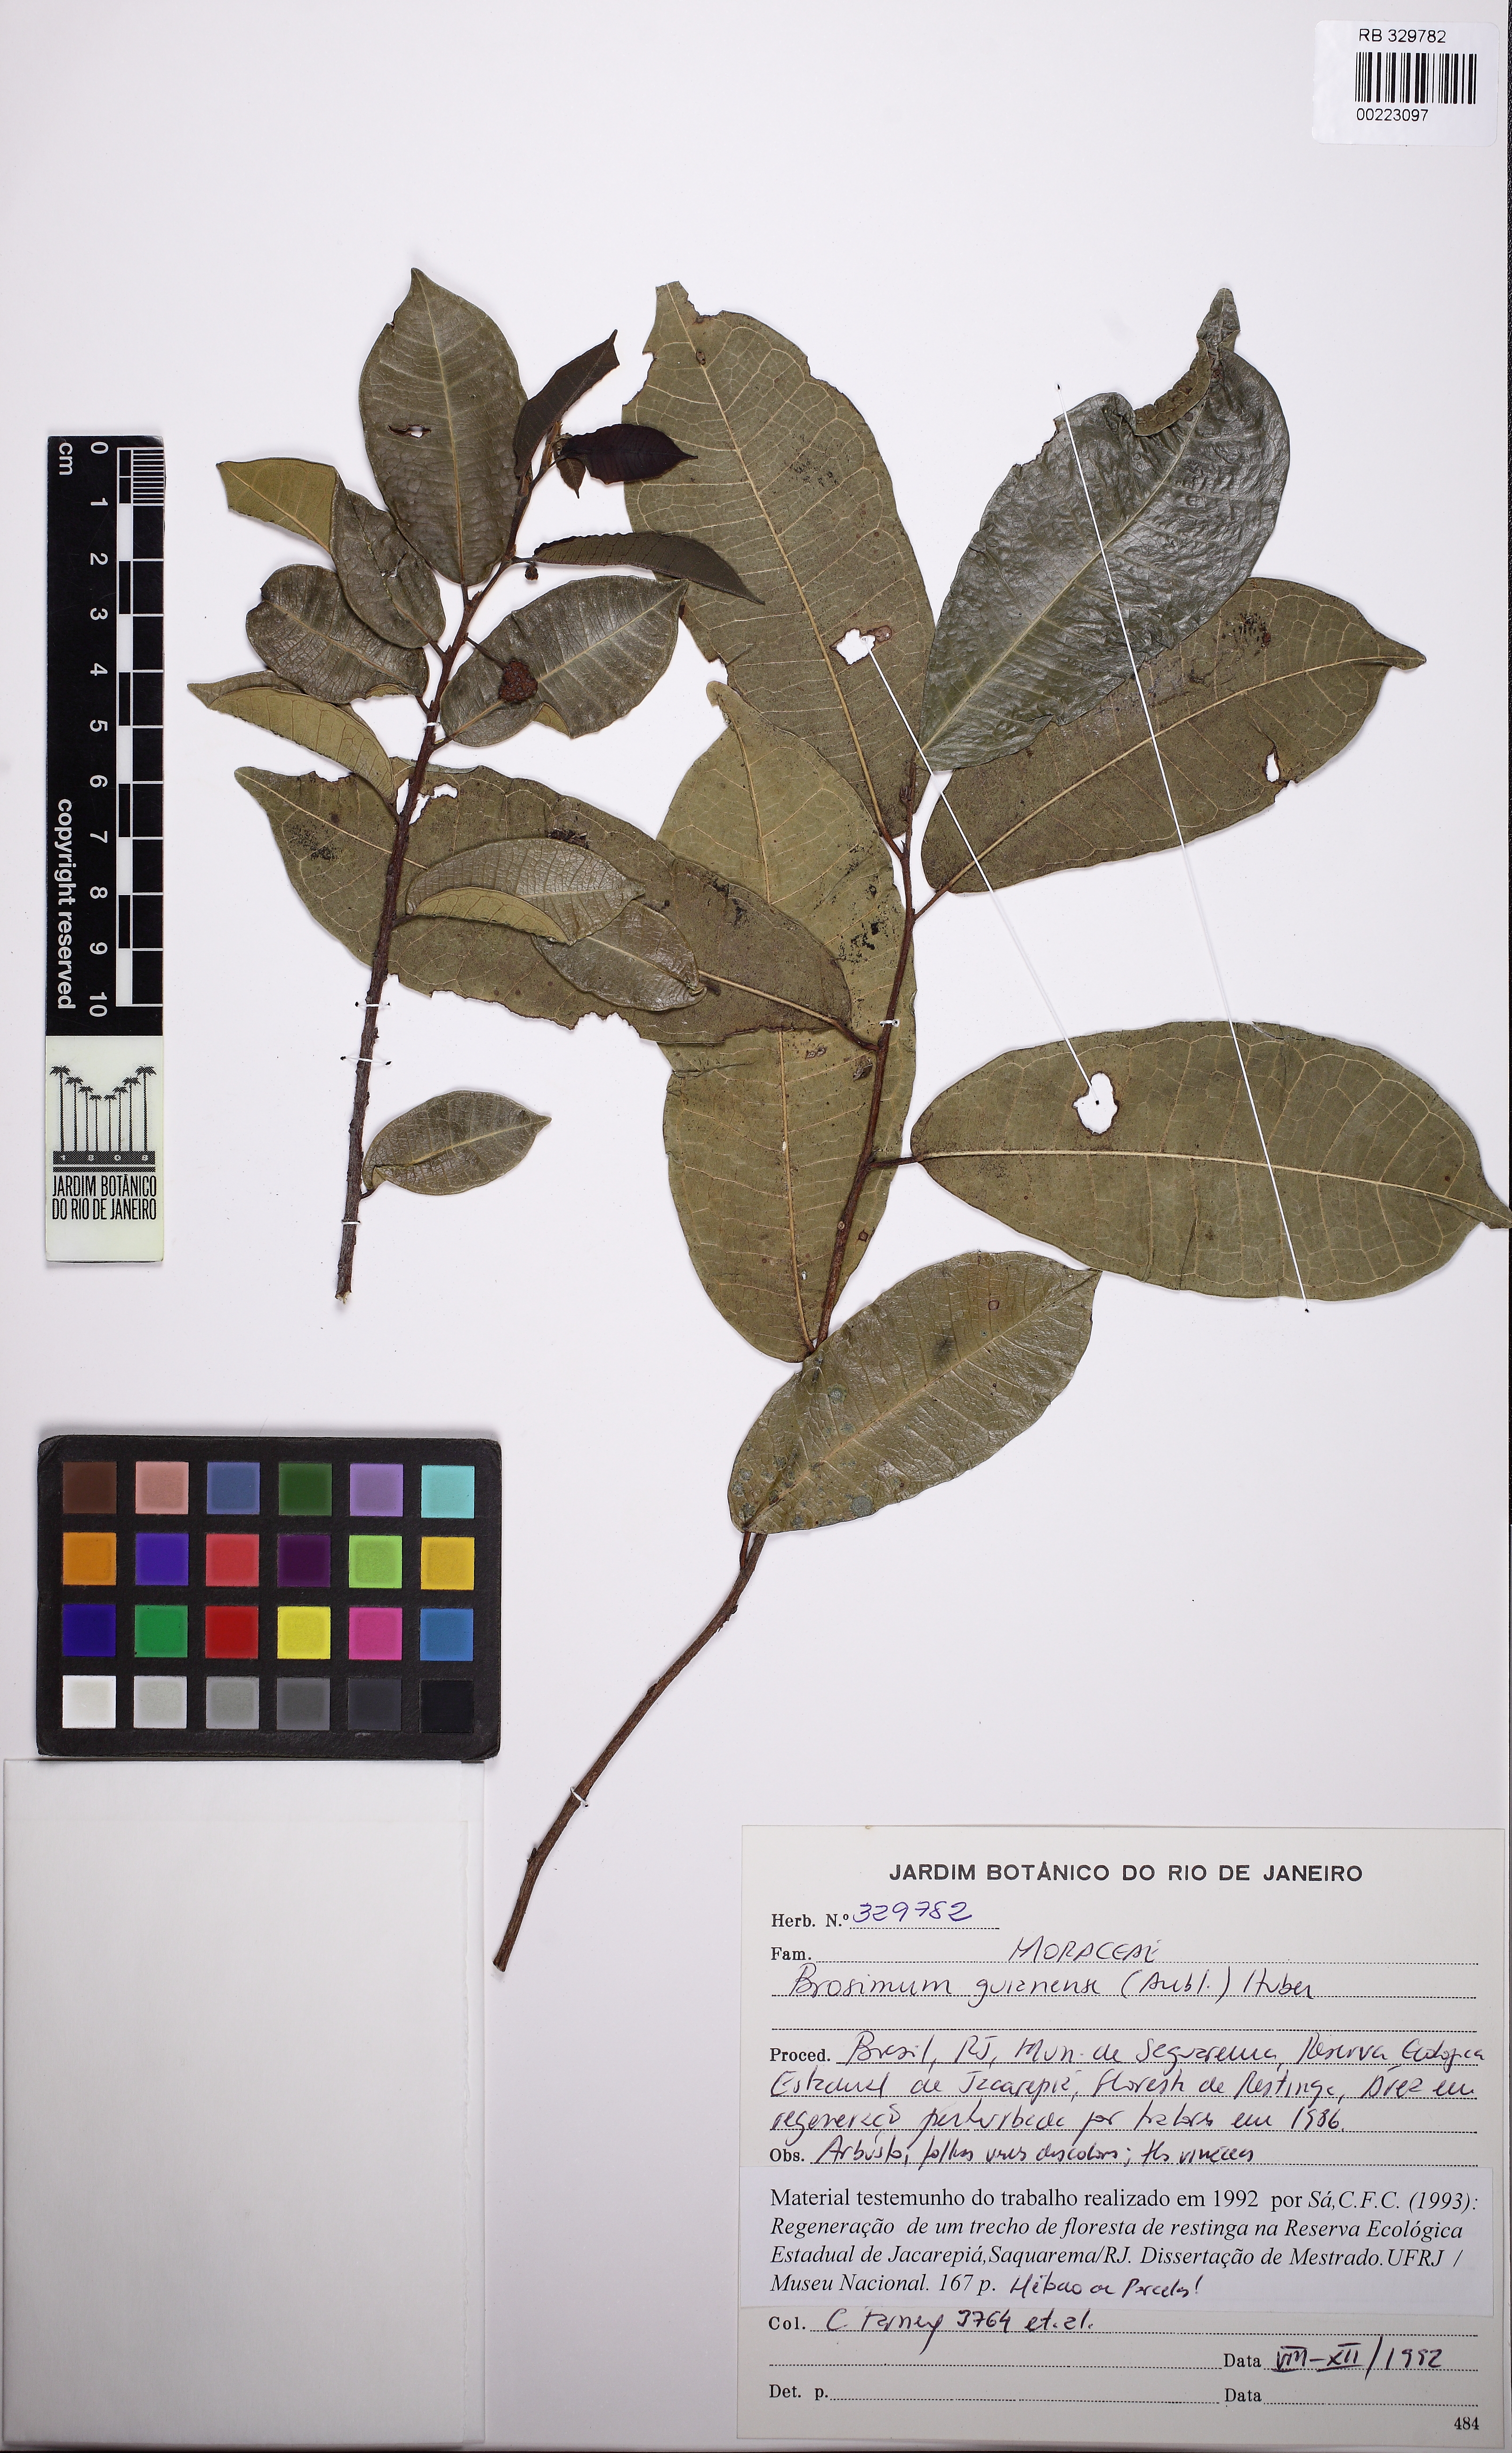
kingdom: Plantae
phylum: Tracheophyta
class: Magnoliopsida
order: Rosales
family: Moraceae
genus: Brosimum
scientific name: Brosimum guianense
